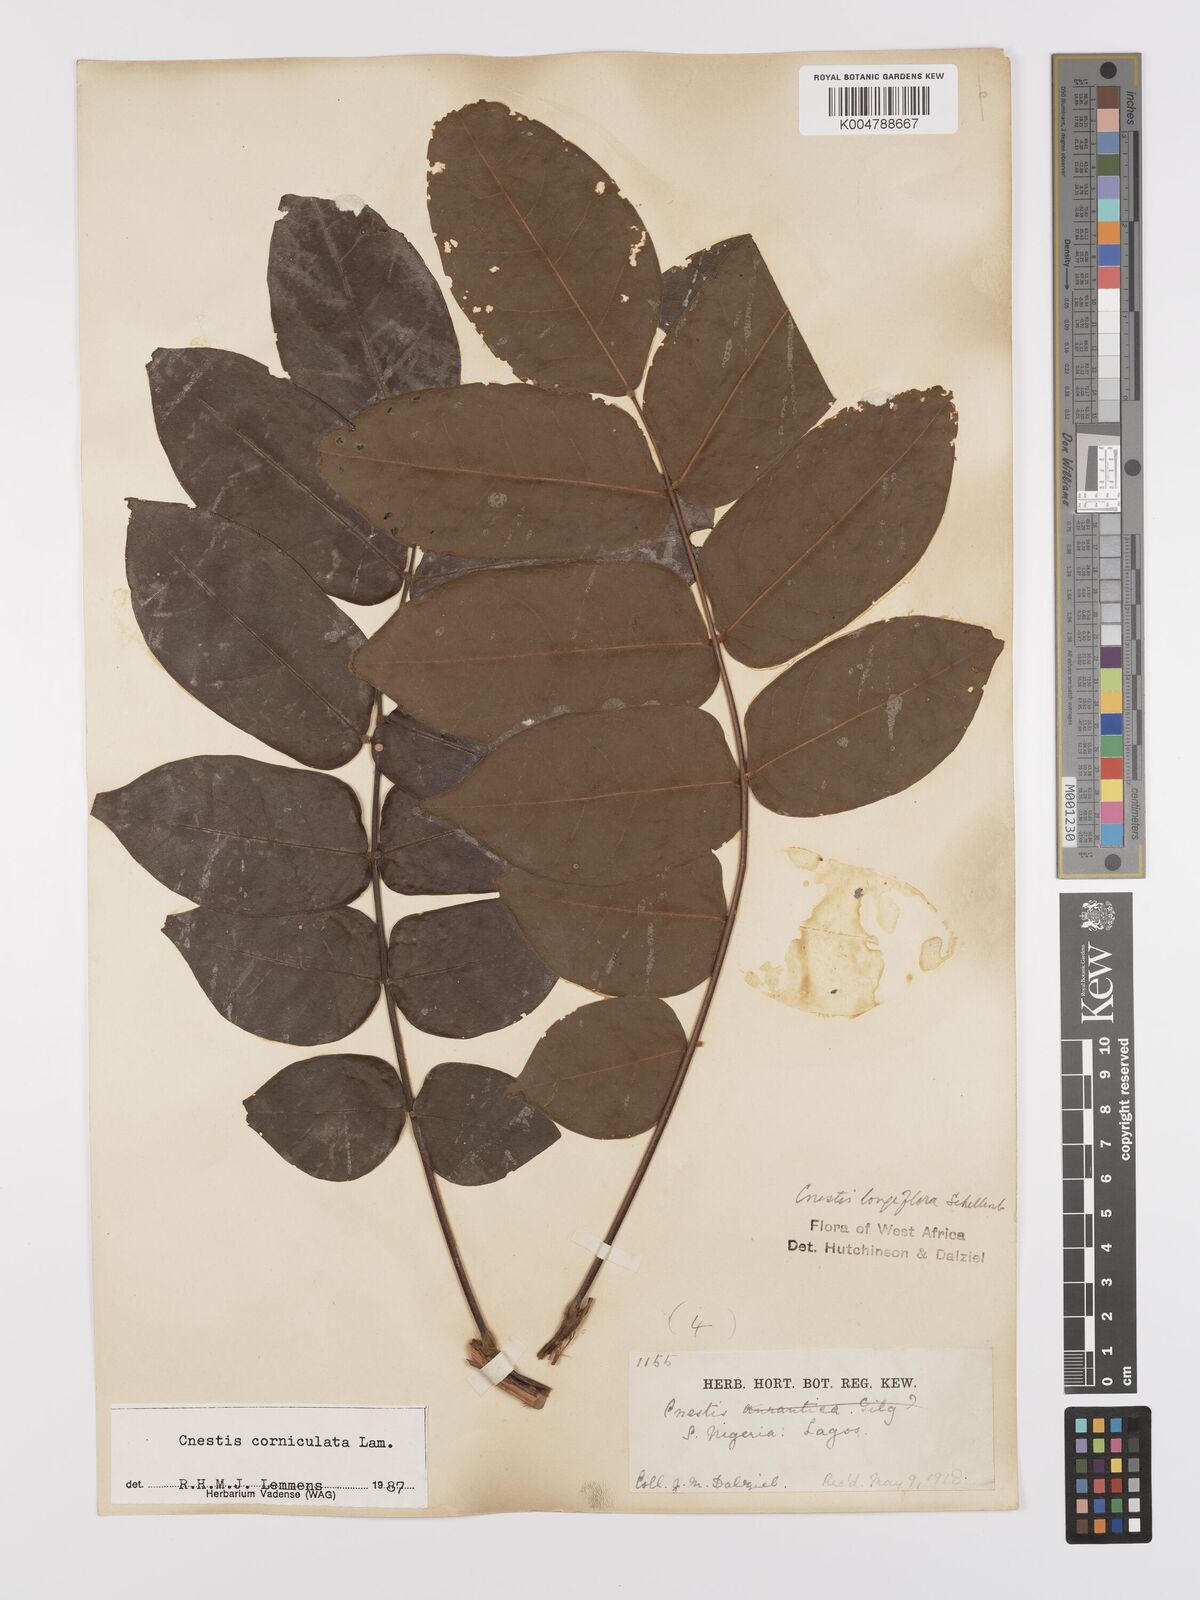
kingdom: Plantae
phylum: Tracheophyta
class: Magnoliopsida
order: Oxalidales
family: Connaraceae
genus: Cnestis
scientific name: Cnestis corniculata
